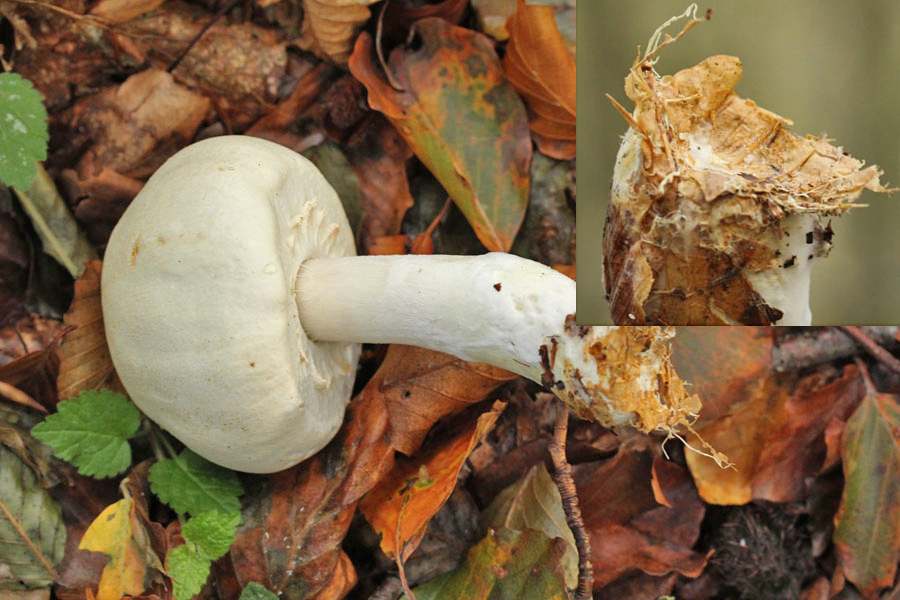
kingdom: Fungi
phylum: Basidiomycota
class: Agaricomycetes
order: Agaricales
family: Agaricaceae
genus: Agaricus
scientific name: Agaricus sylvicola
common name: skiveknoldet champignon
